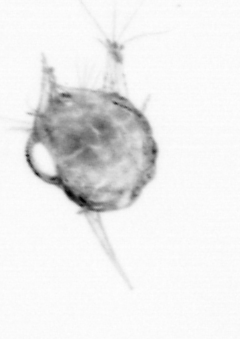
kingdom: Animalia
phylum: Arthropoda
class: Copepoda
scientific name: Copepoda
